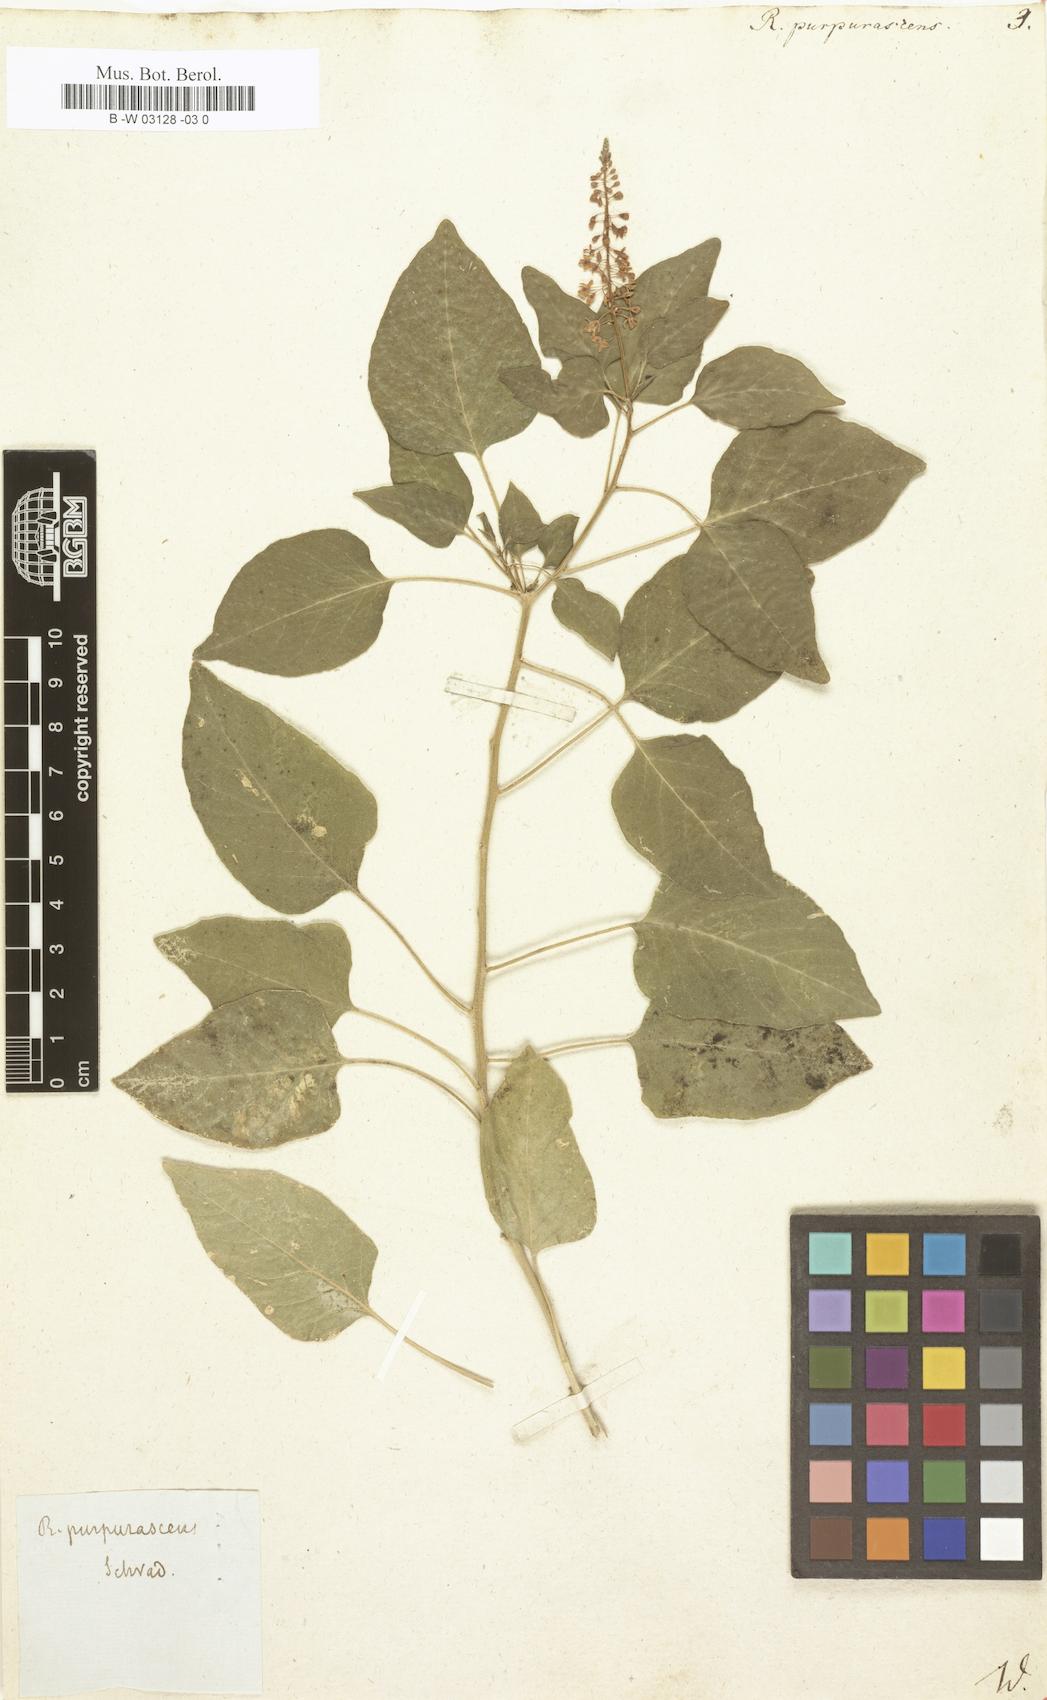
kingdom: Plantae
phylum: Tracheophyta
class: Magnoliopsida
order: Caryophyllales
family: Phytolaccaceae
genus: Rivina
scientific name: Rivina humilis
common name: Rougeplant
